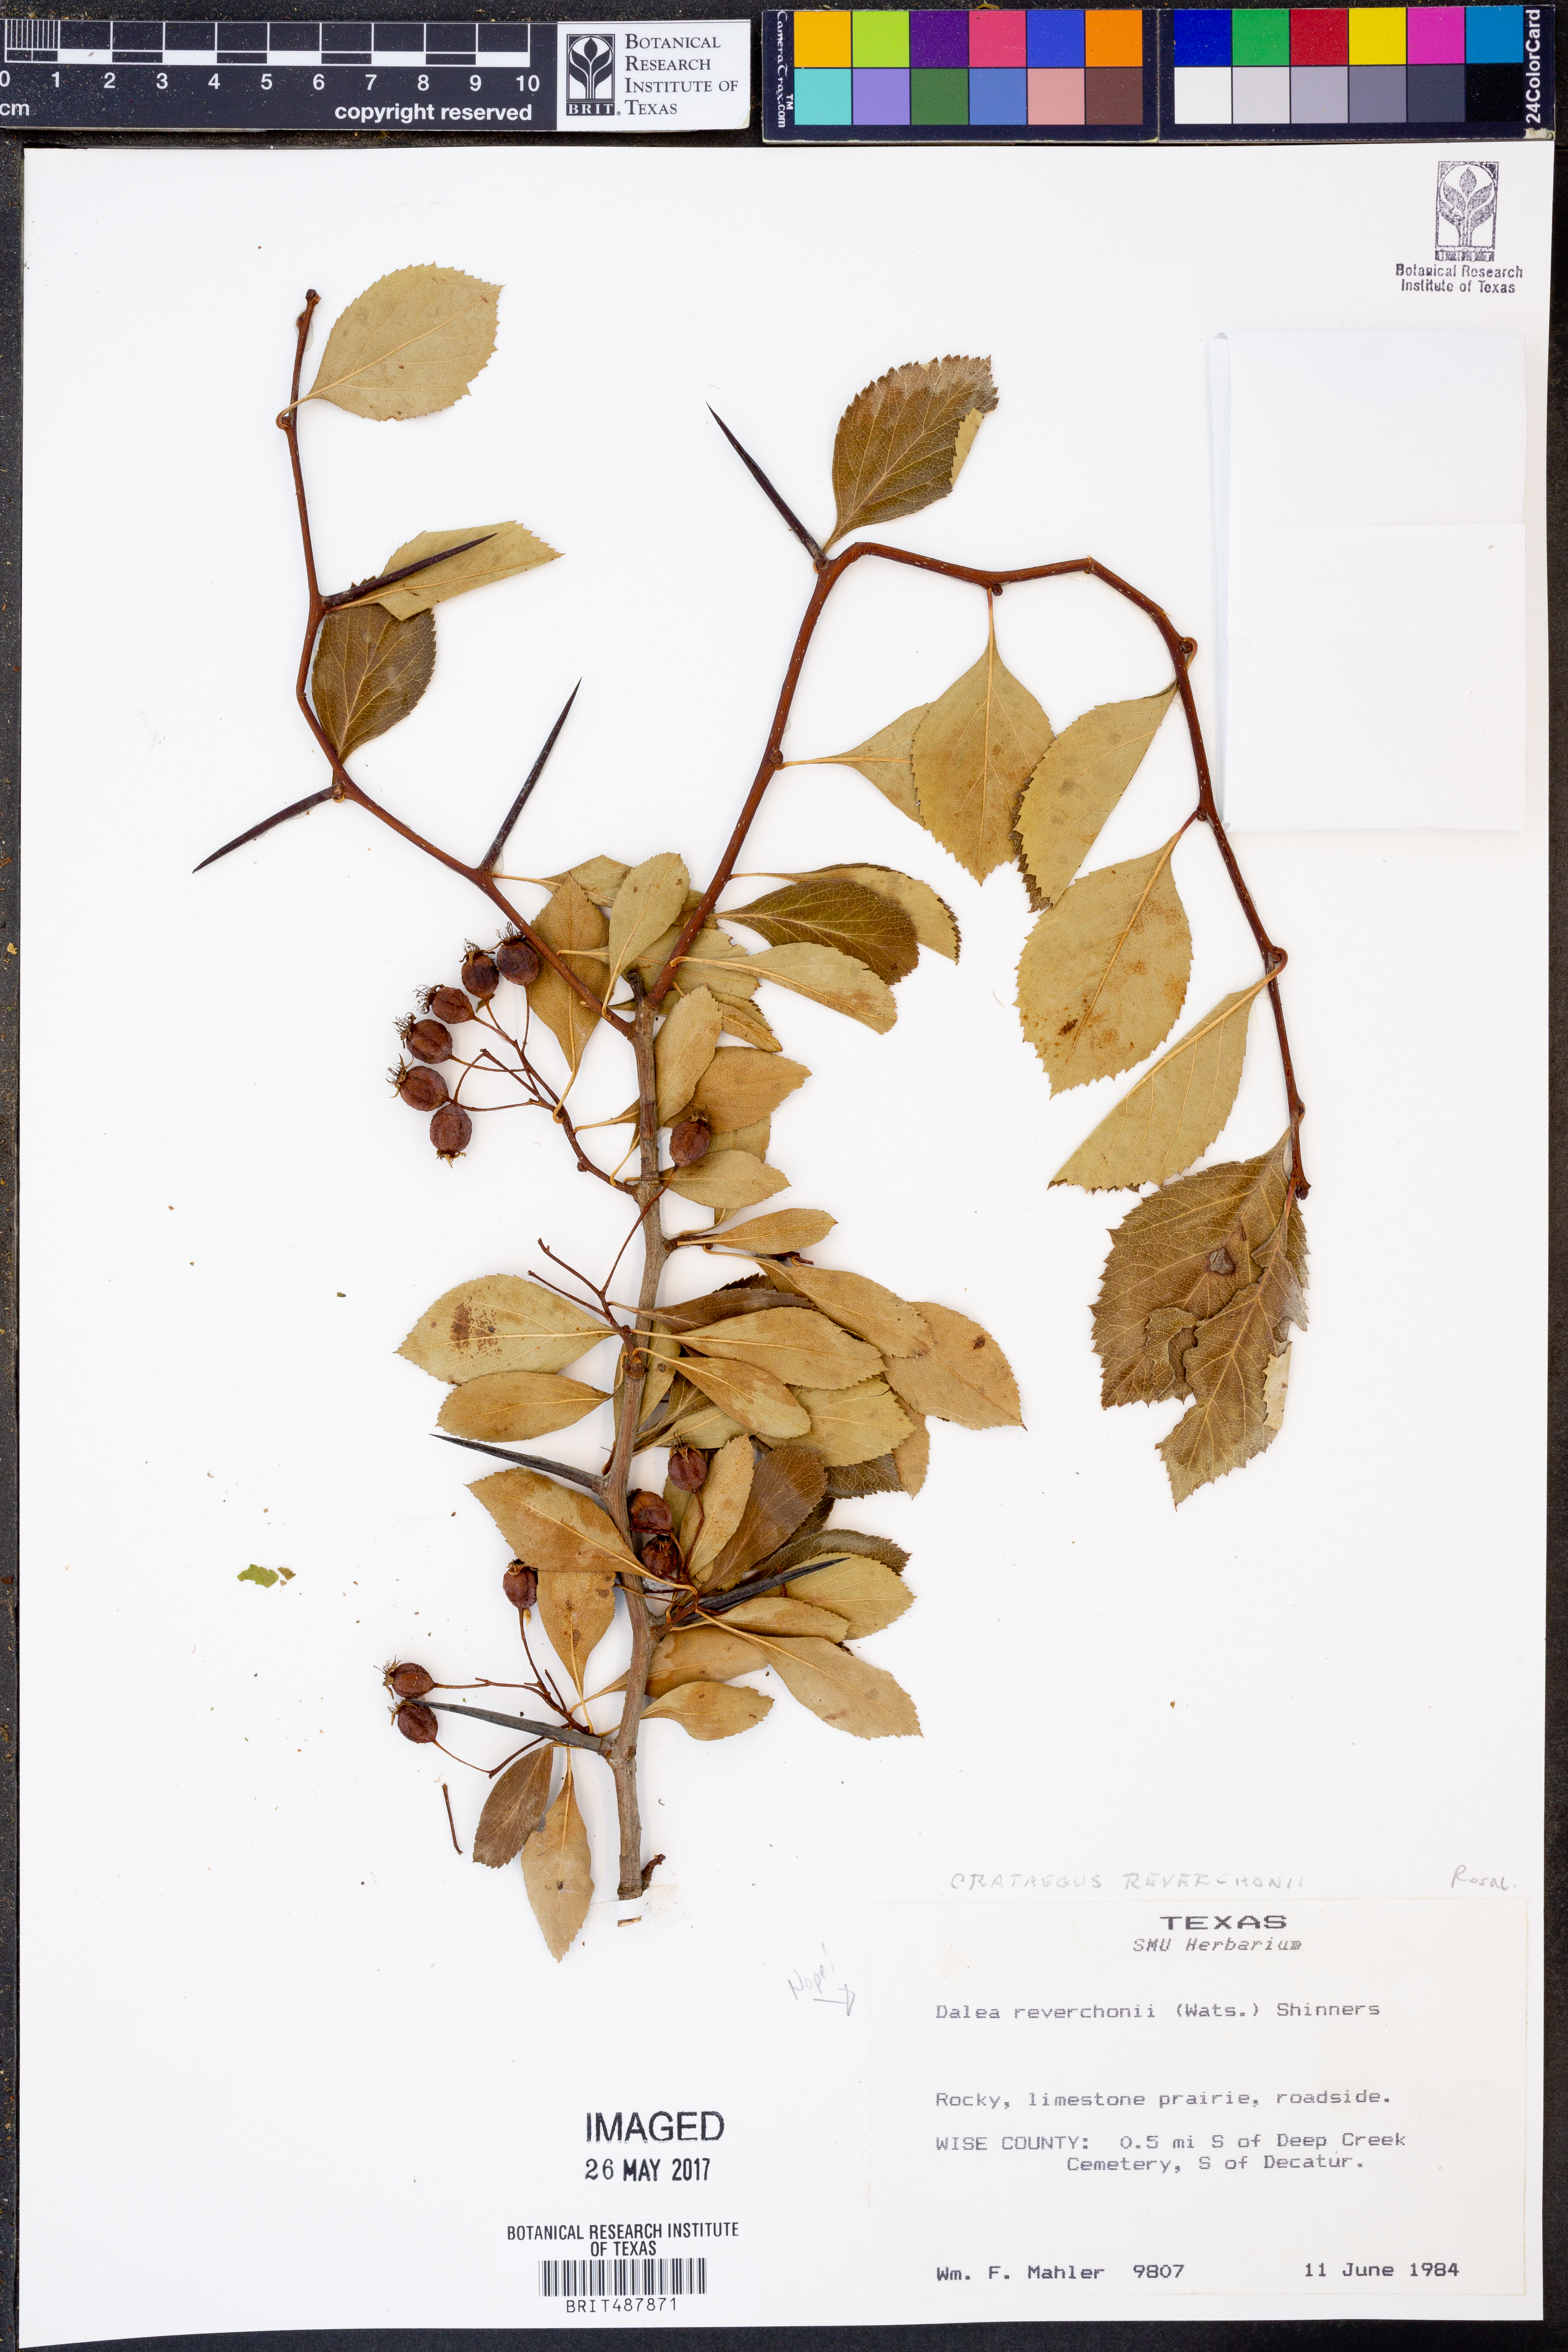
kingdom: Plantae
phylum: Tracheophyta
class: Magnoliopsida
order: Rosales
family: Rosaceae
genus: Crataegus
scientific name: Crataegus reverchonii
